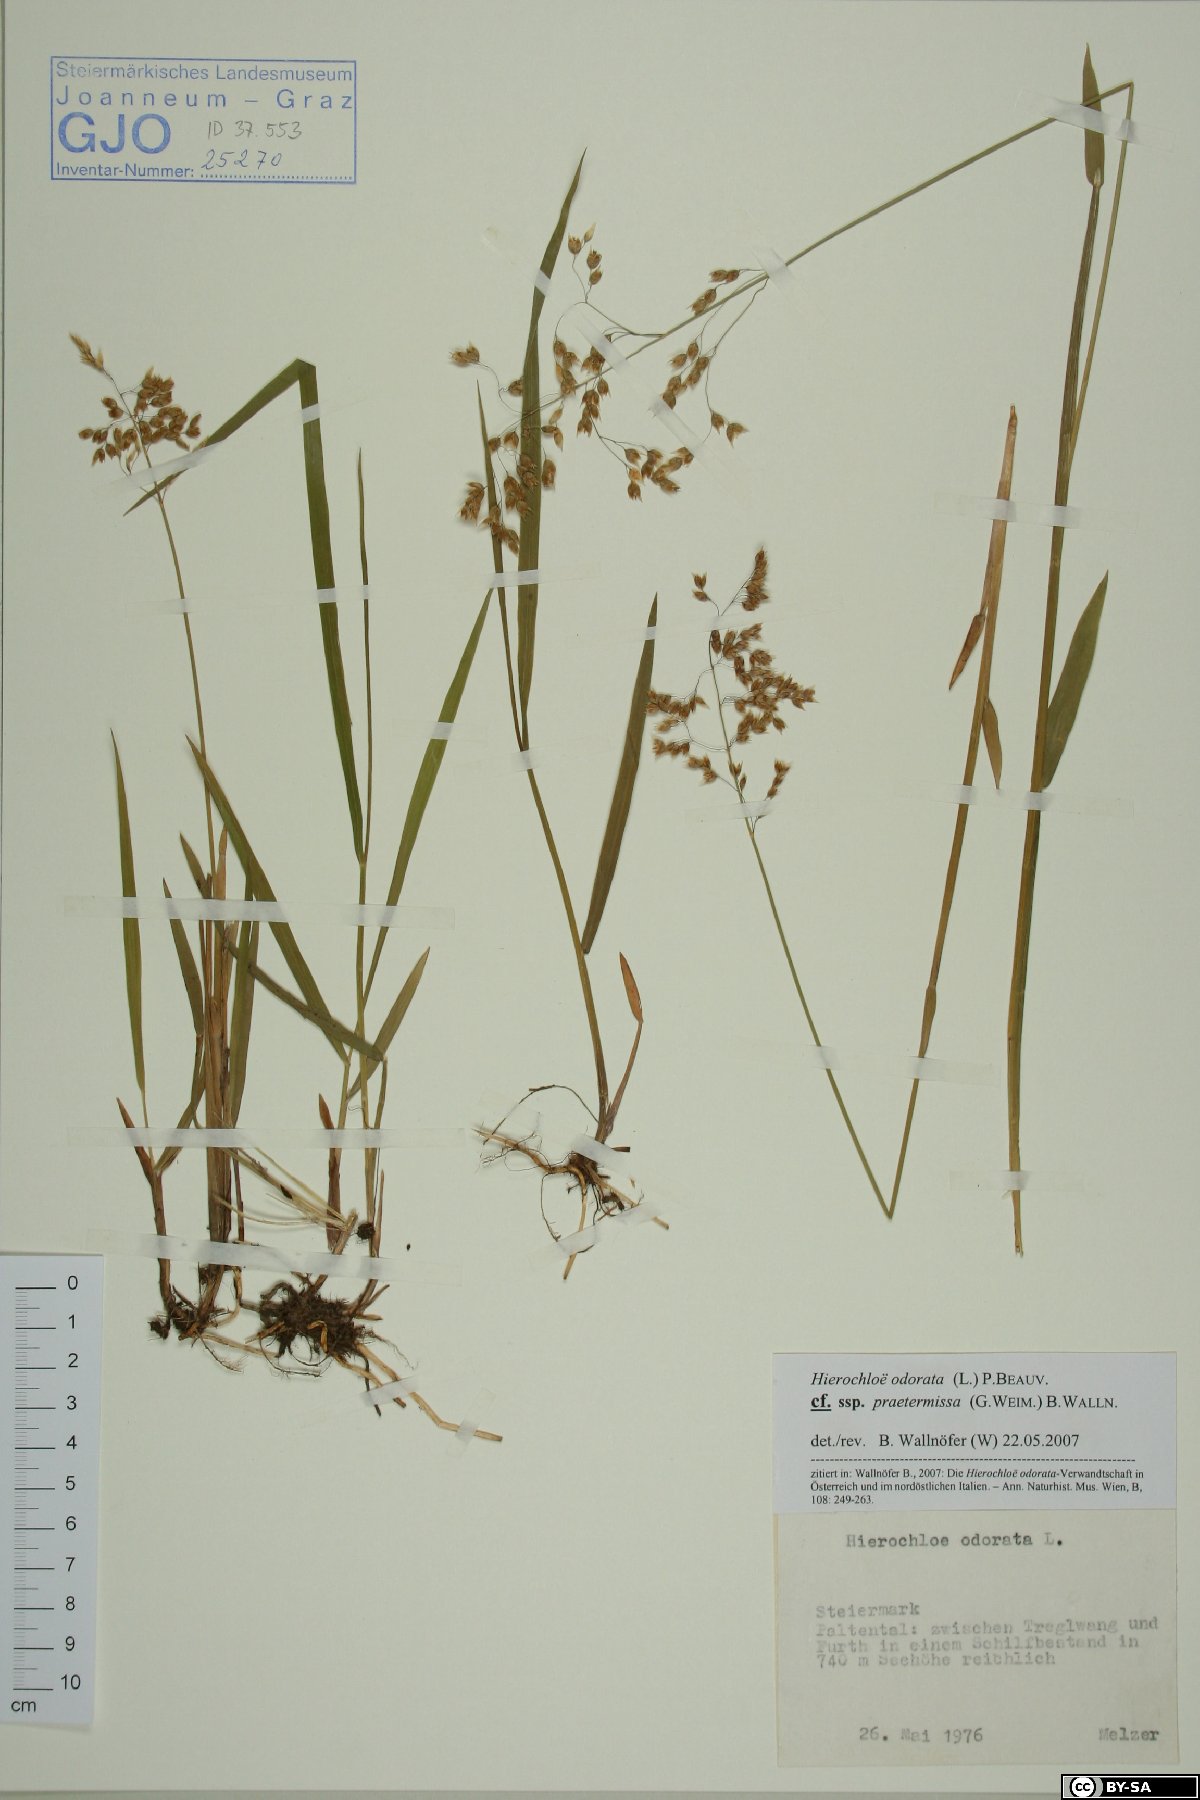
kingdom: Plantae
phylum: Tracheophyta
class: Liliopsida
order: Poales
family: Poaceae
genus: Anthoxanthum
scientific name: Anthoxanthum nitens
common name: Holy grass
